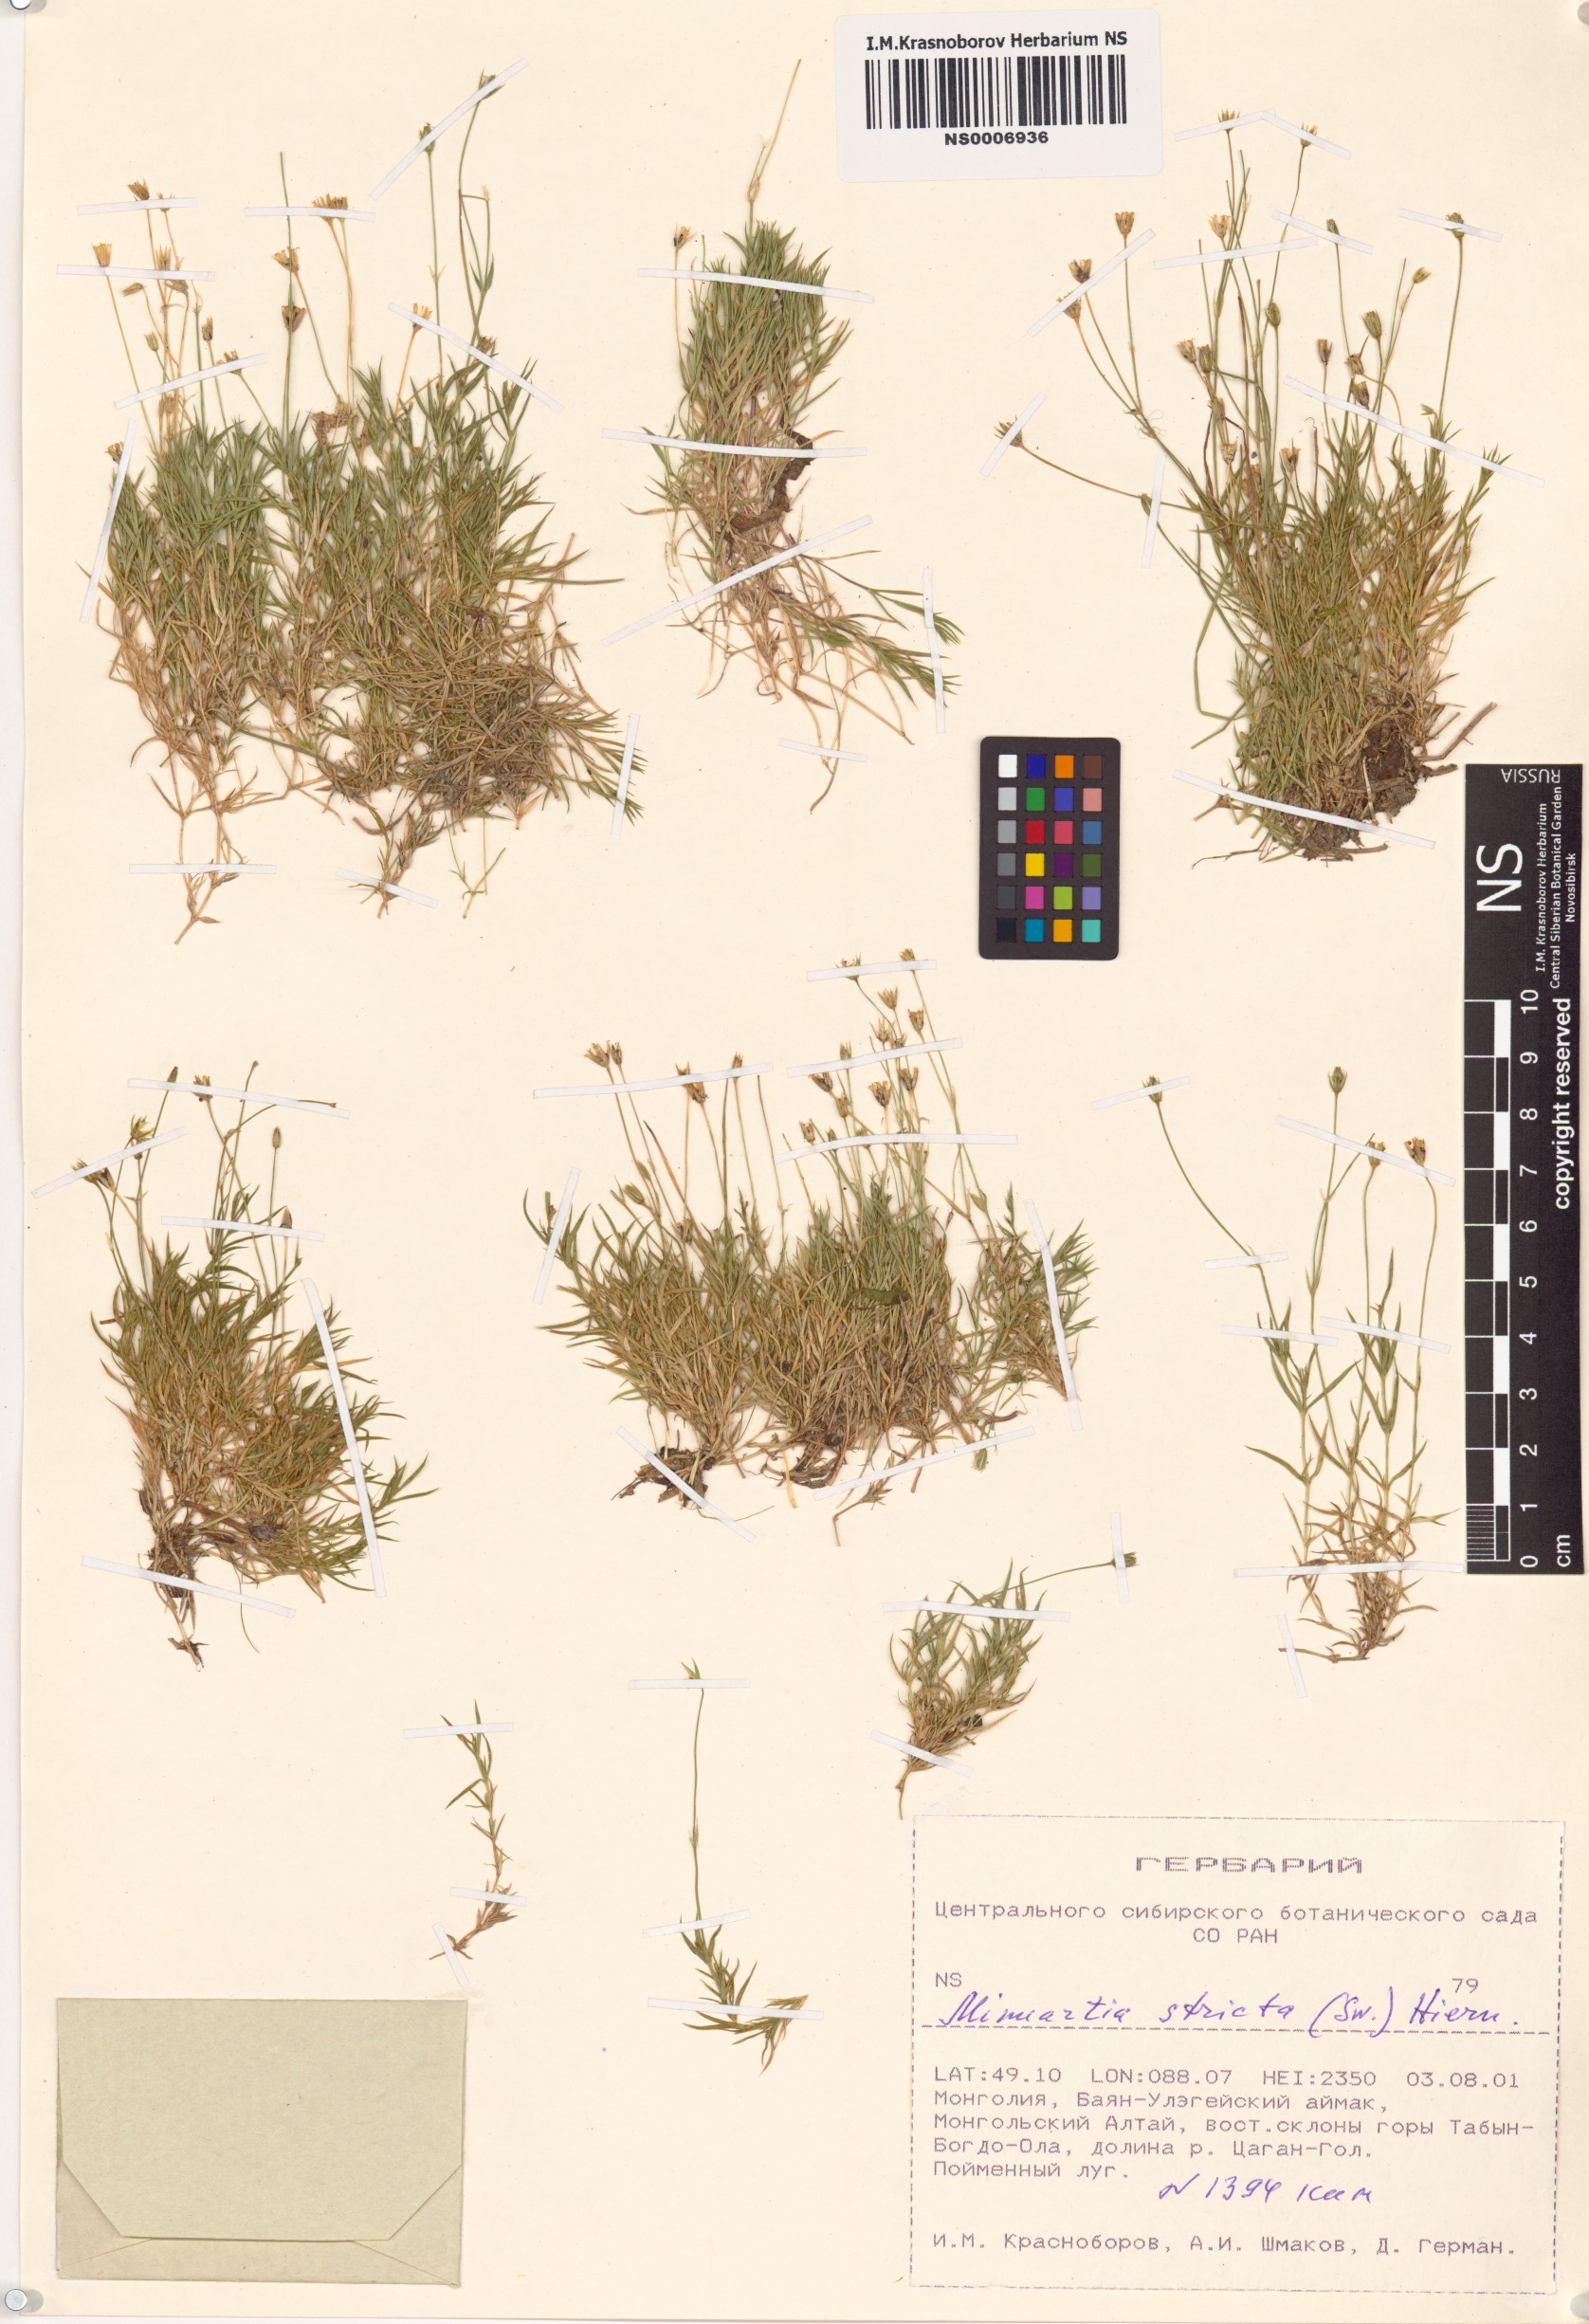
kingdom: Plantae
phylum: Tracheophyta
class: Magnoliopsida
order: Caryophyllales
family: Caryophyllaceae
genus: Sabulina
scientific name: Sabulina stricta
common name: Bog sandwort
